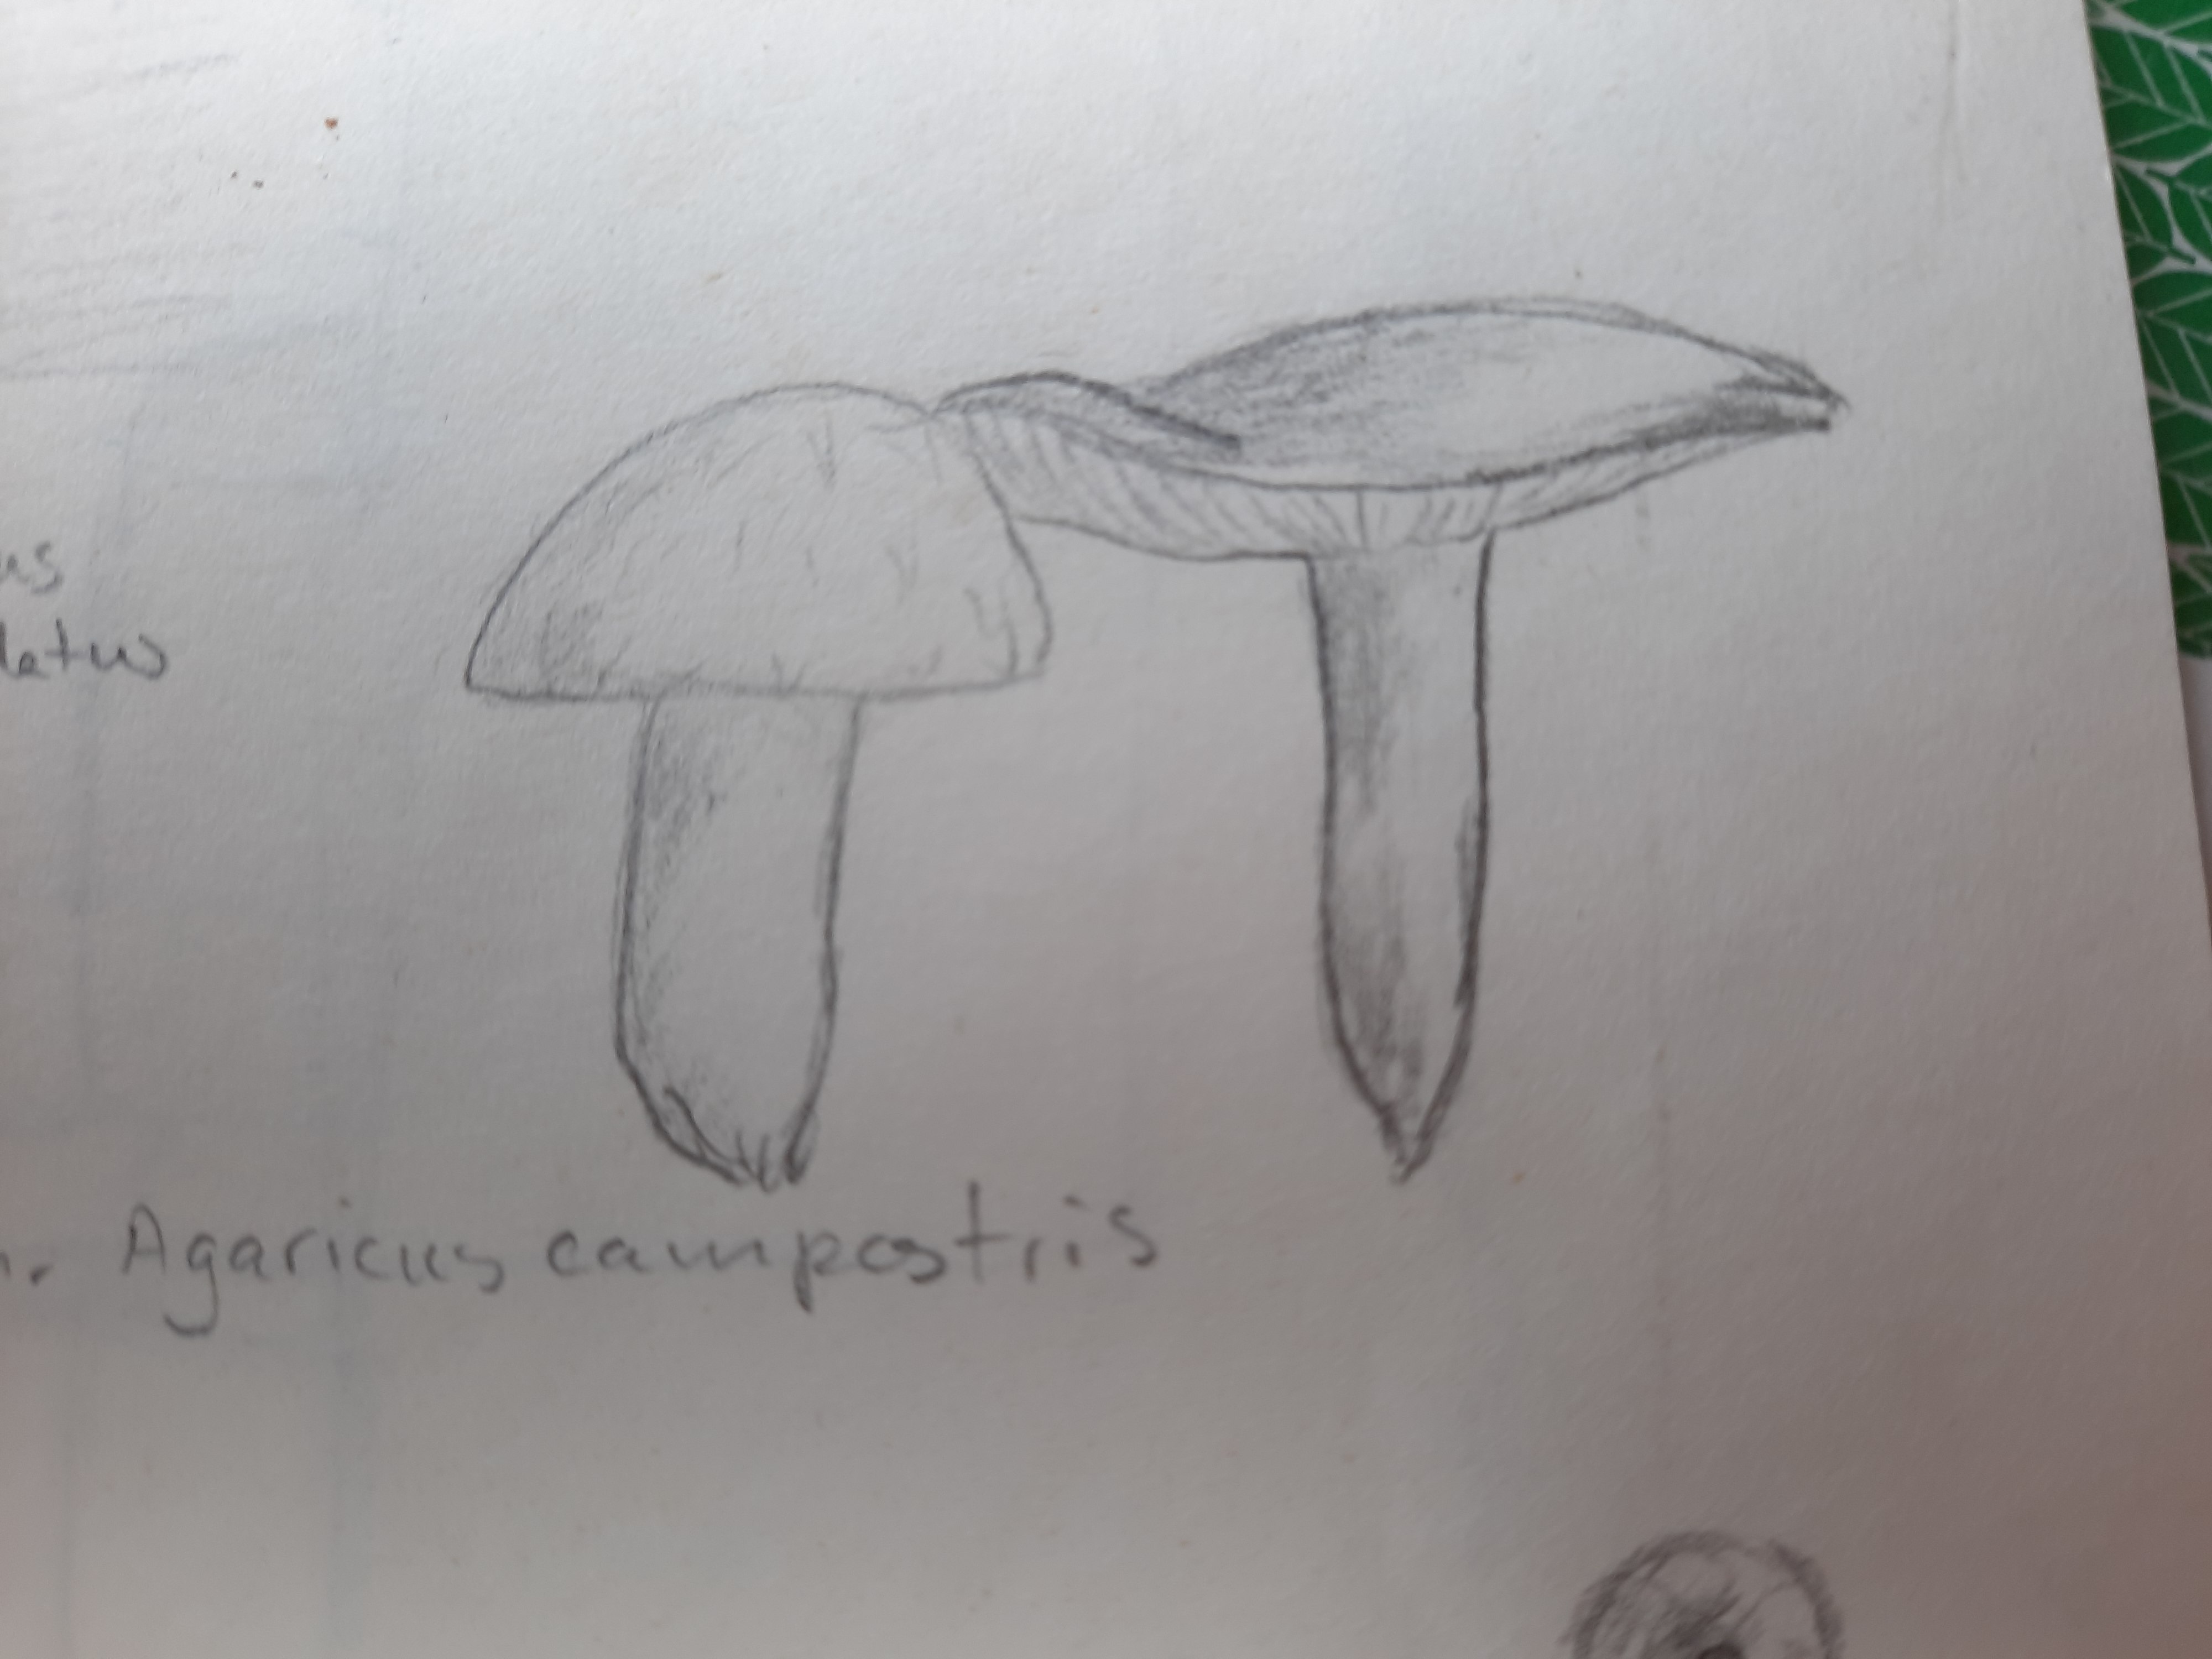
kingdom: Fungi
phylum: Basidiomycota
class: Agaricomycetes
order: Agaricales
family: Agaricaceae
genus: Agaricus
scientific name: Agaricus campestris
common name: mark-champignon
